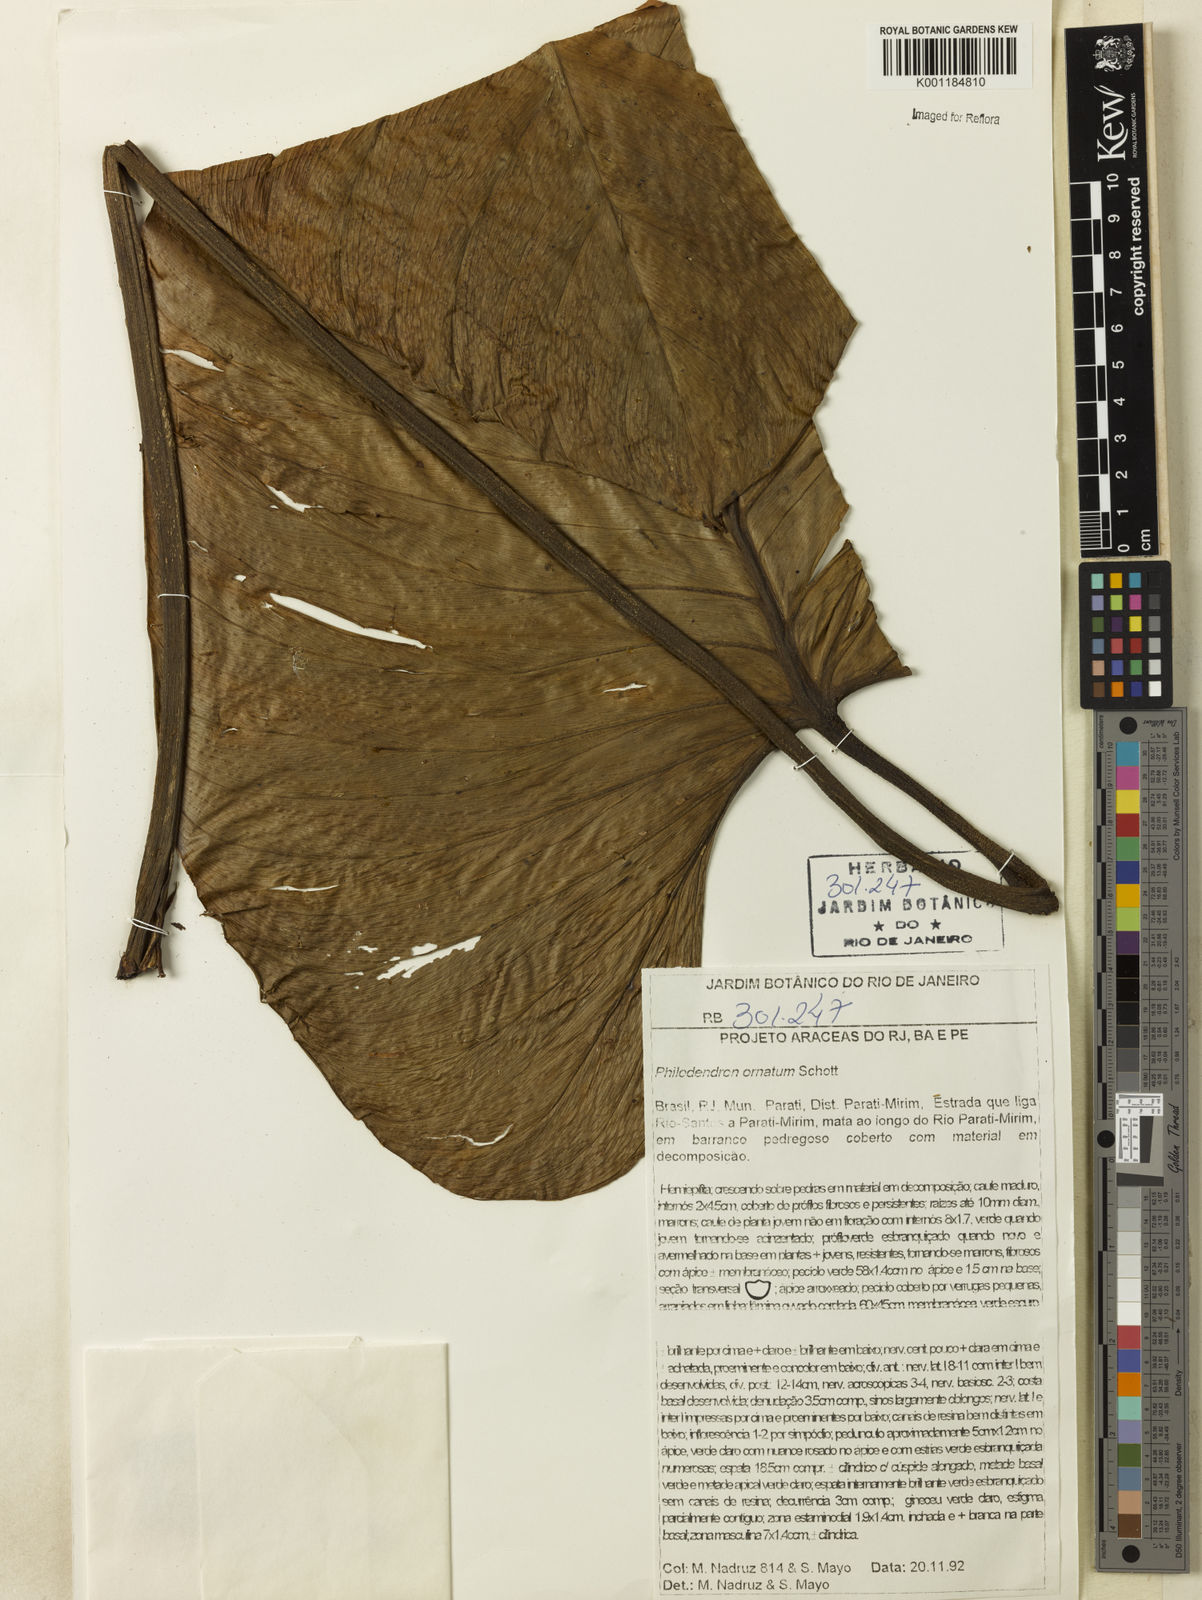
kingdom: Plantae
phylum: Tracheophyta
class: Liliopsida
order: Alismatales
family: Araceae
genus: Philodendron
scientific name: Philodendron ornatum
